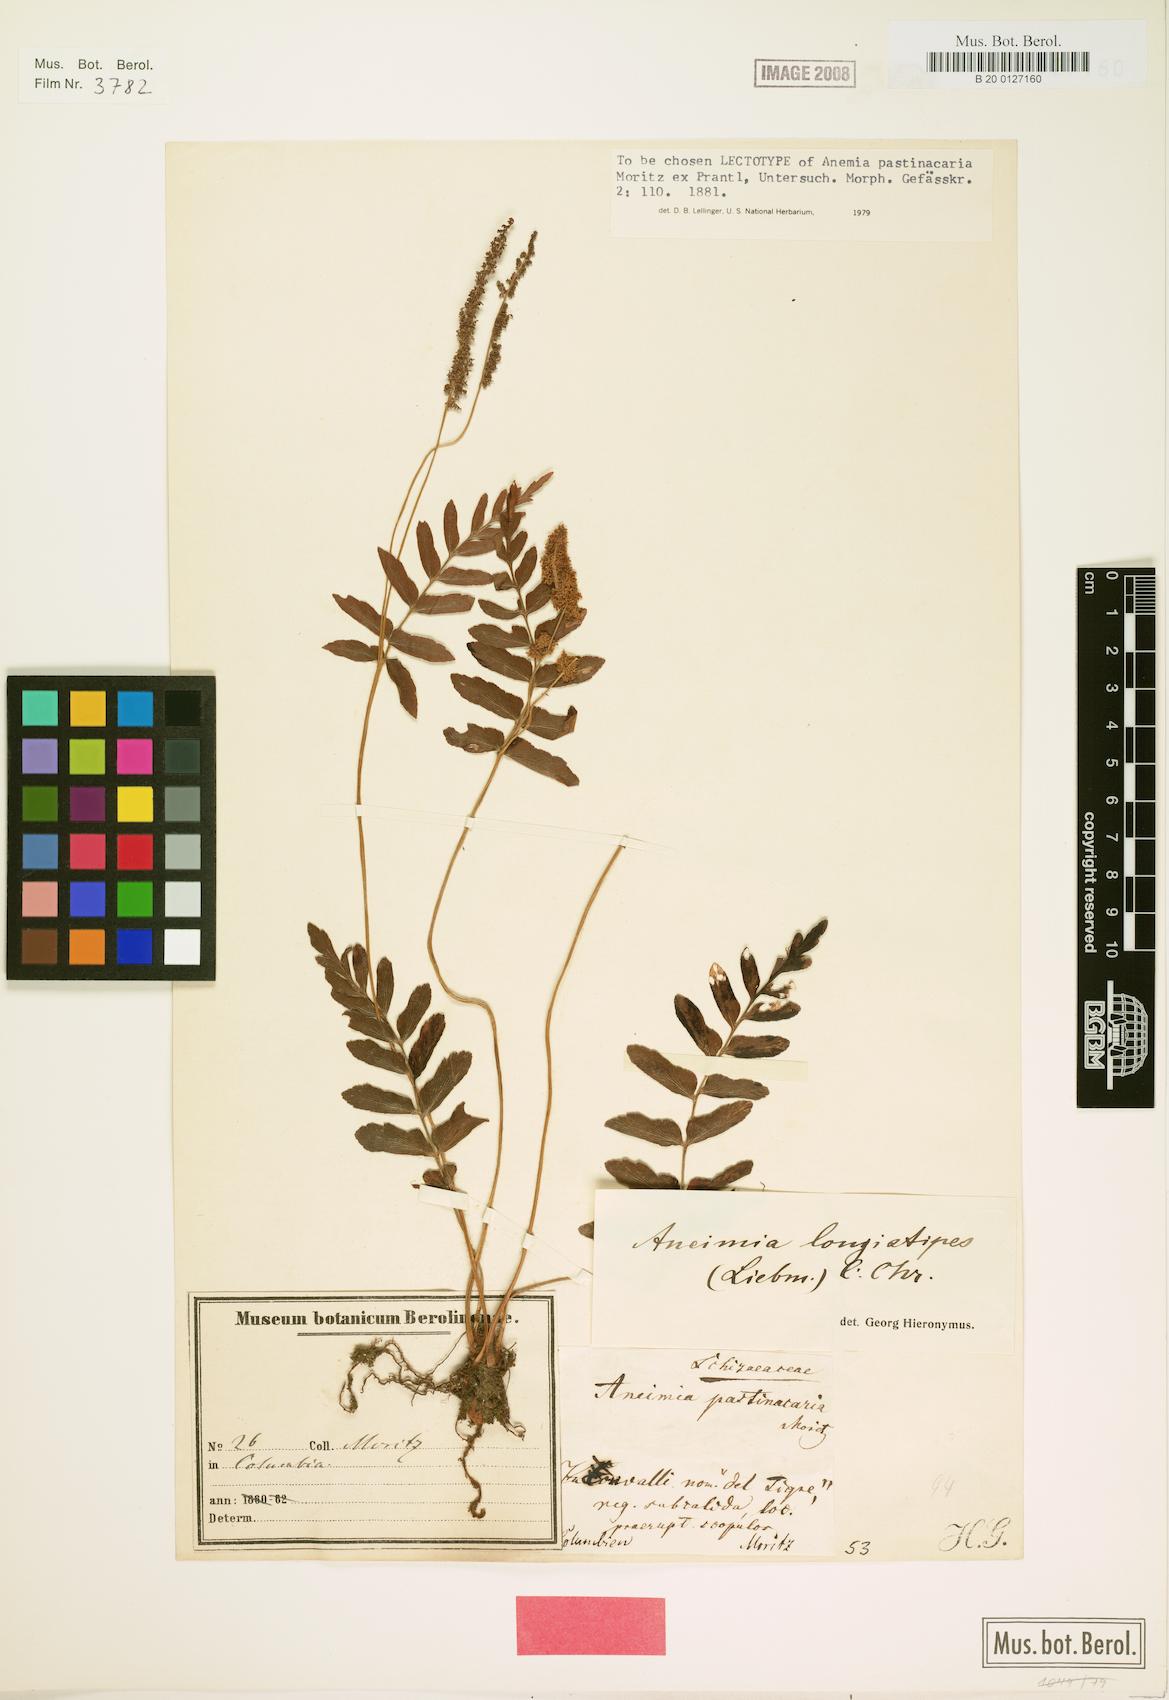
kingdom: Plantae
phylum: Tracheophyta
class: Polypodiopsida
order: Schizaeales
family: Anemiaceae
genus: Anemia
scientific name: Anemia hispida
